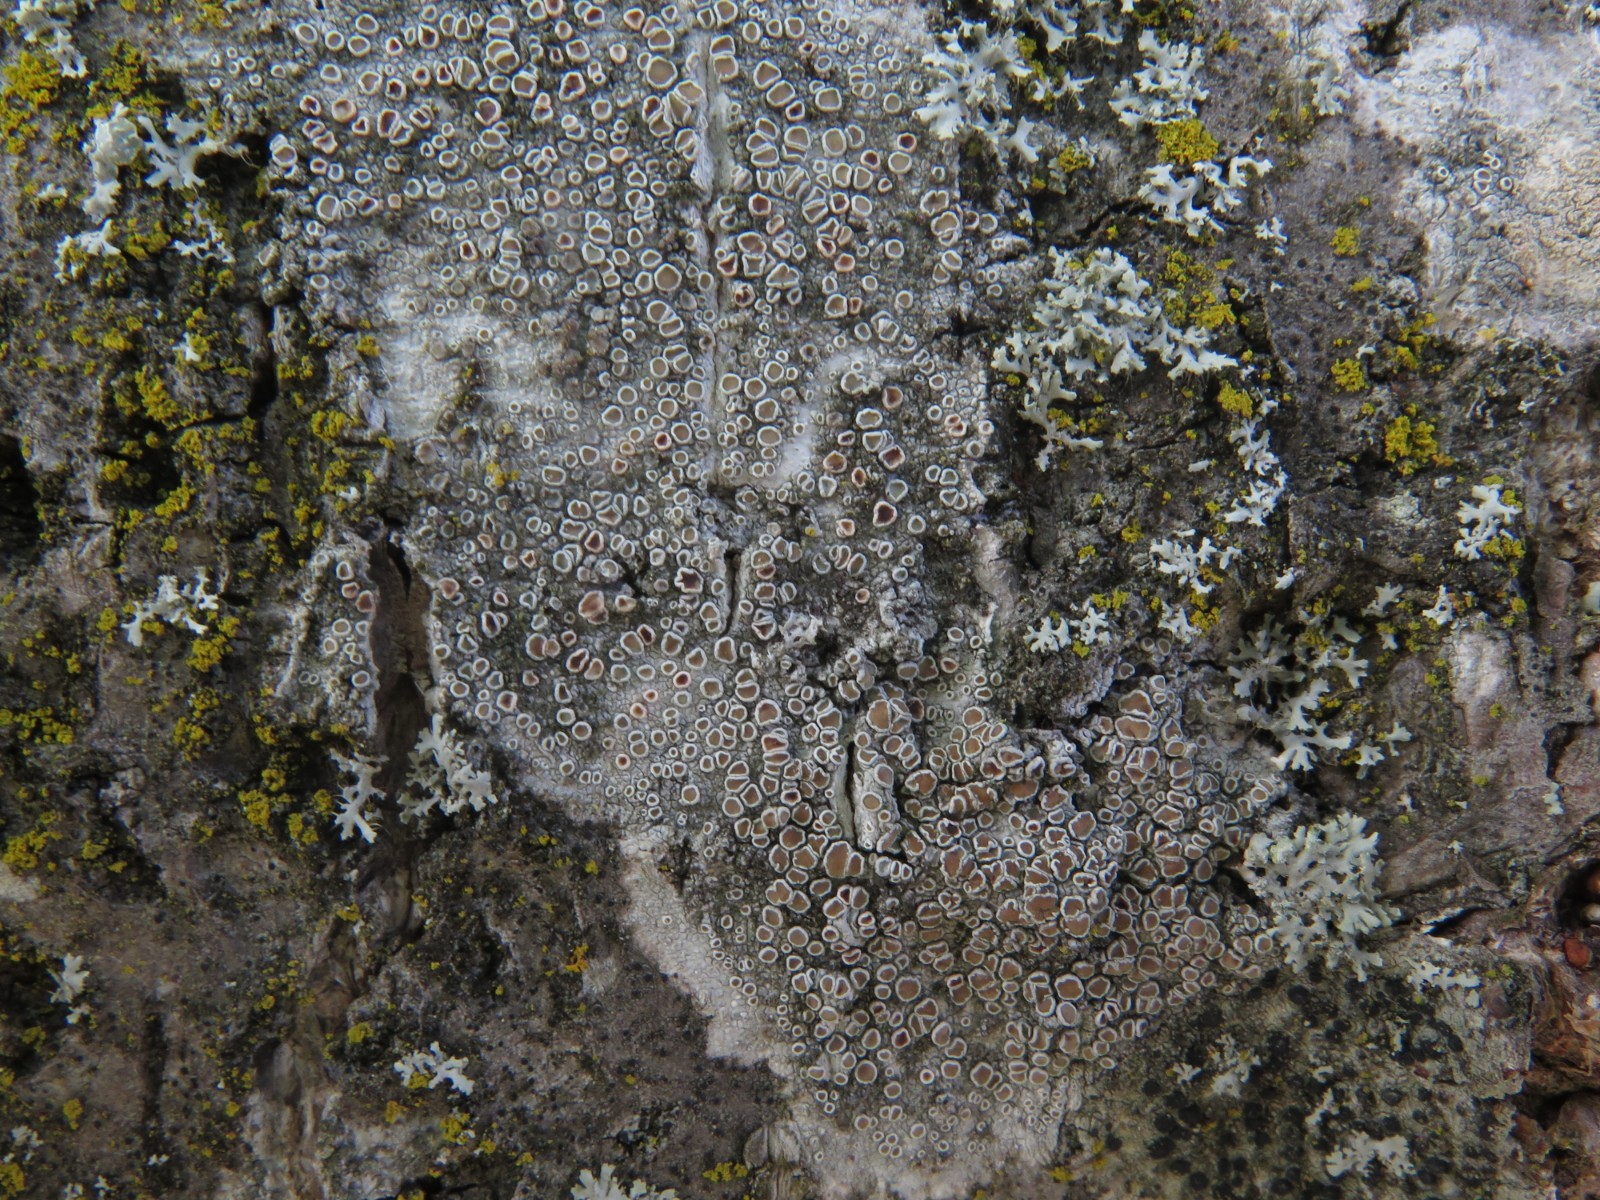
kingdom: Fungi
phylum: Ascomycota
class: Lecanoromycetes
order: Lecanorales
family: Lecanoraceae
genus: Lecanora
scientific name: Lecanora chlarotera
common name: brun kantskivelav
